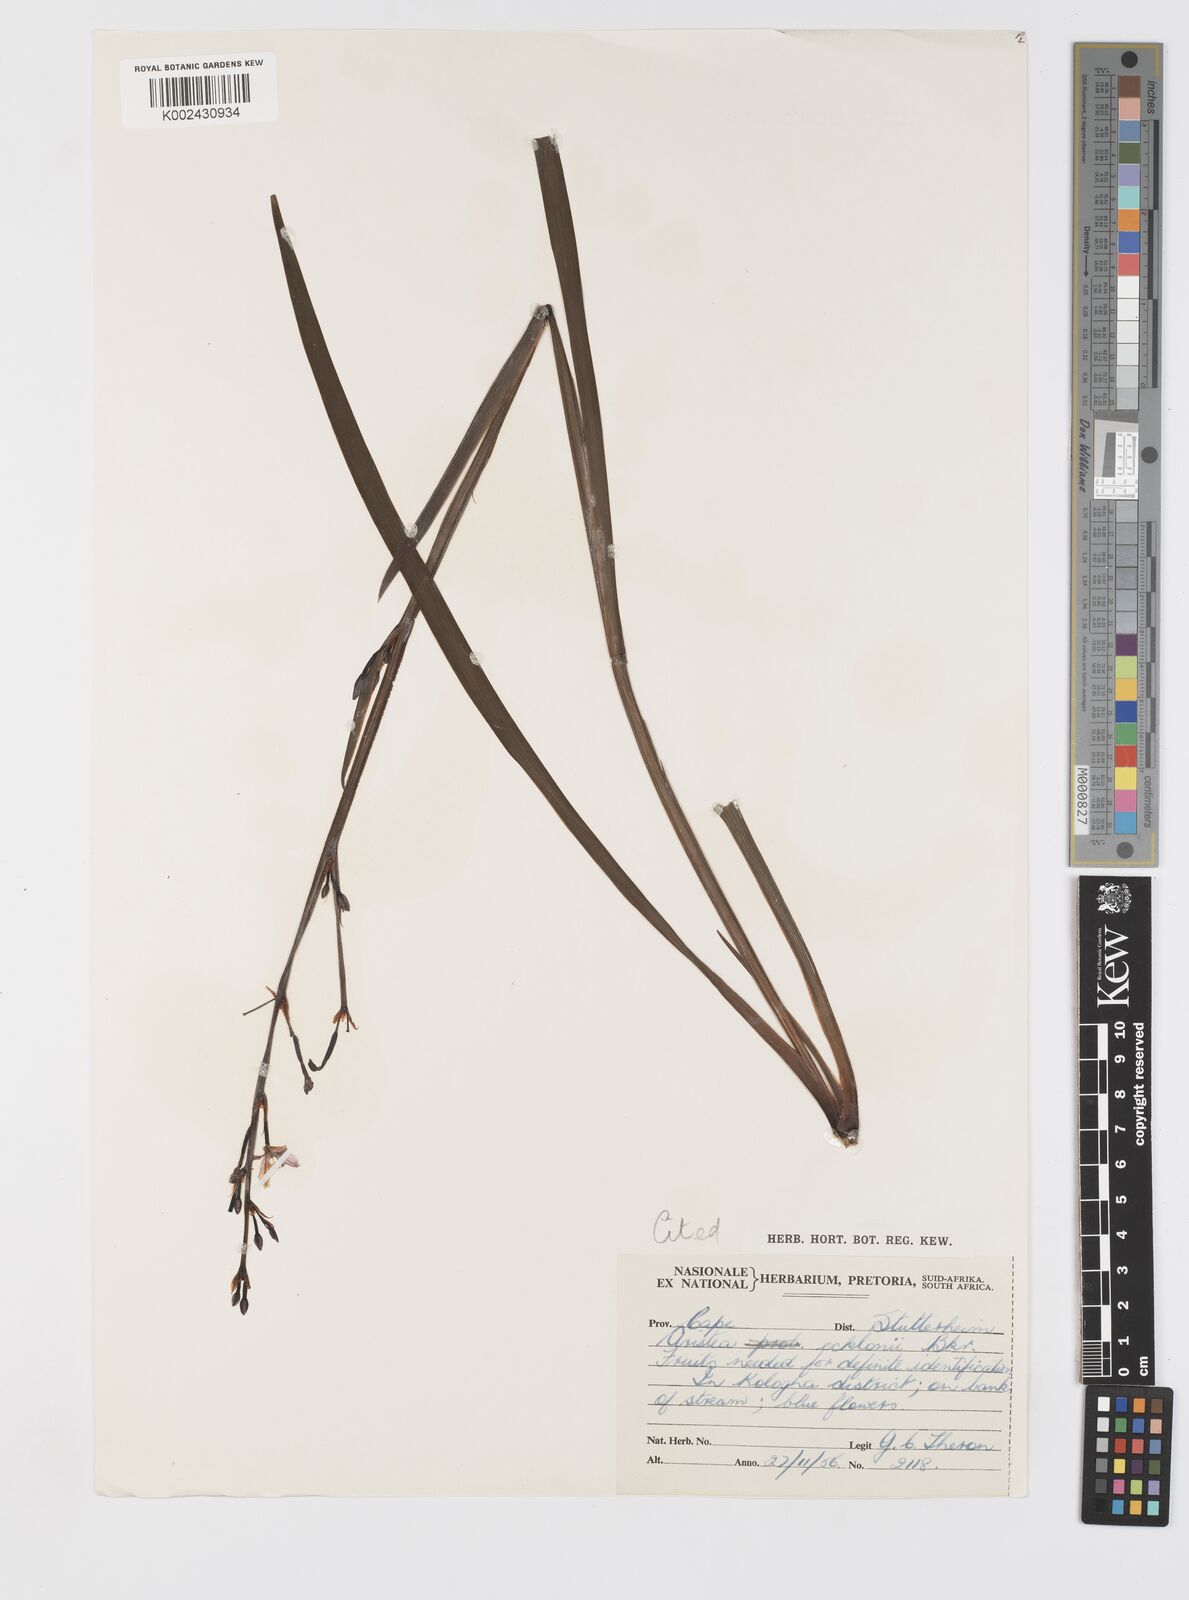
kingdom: Plantae
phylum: Tracheophyta
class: Liliopsida
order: Asparagales
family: Iridaceae
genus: Aristea
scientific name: Aristea ecklonii
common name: Blue corn-lily
